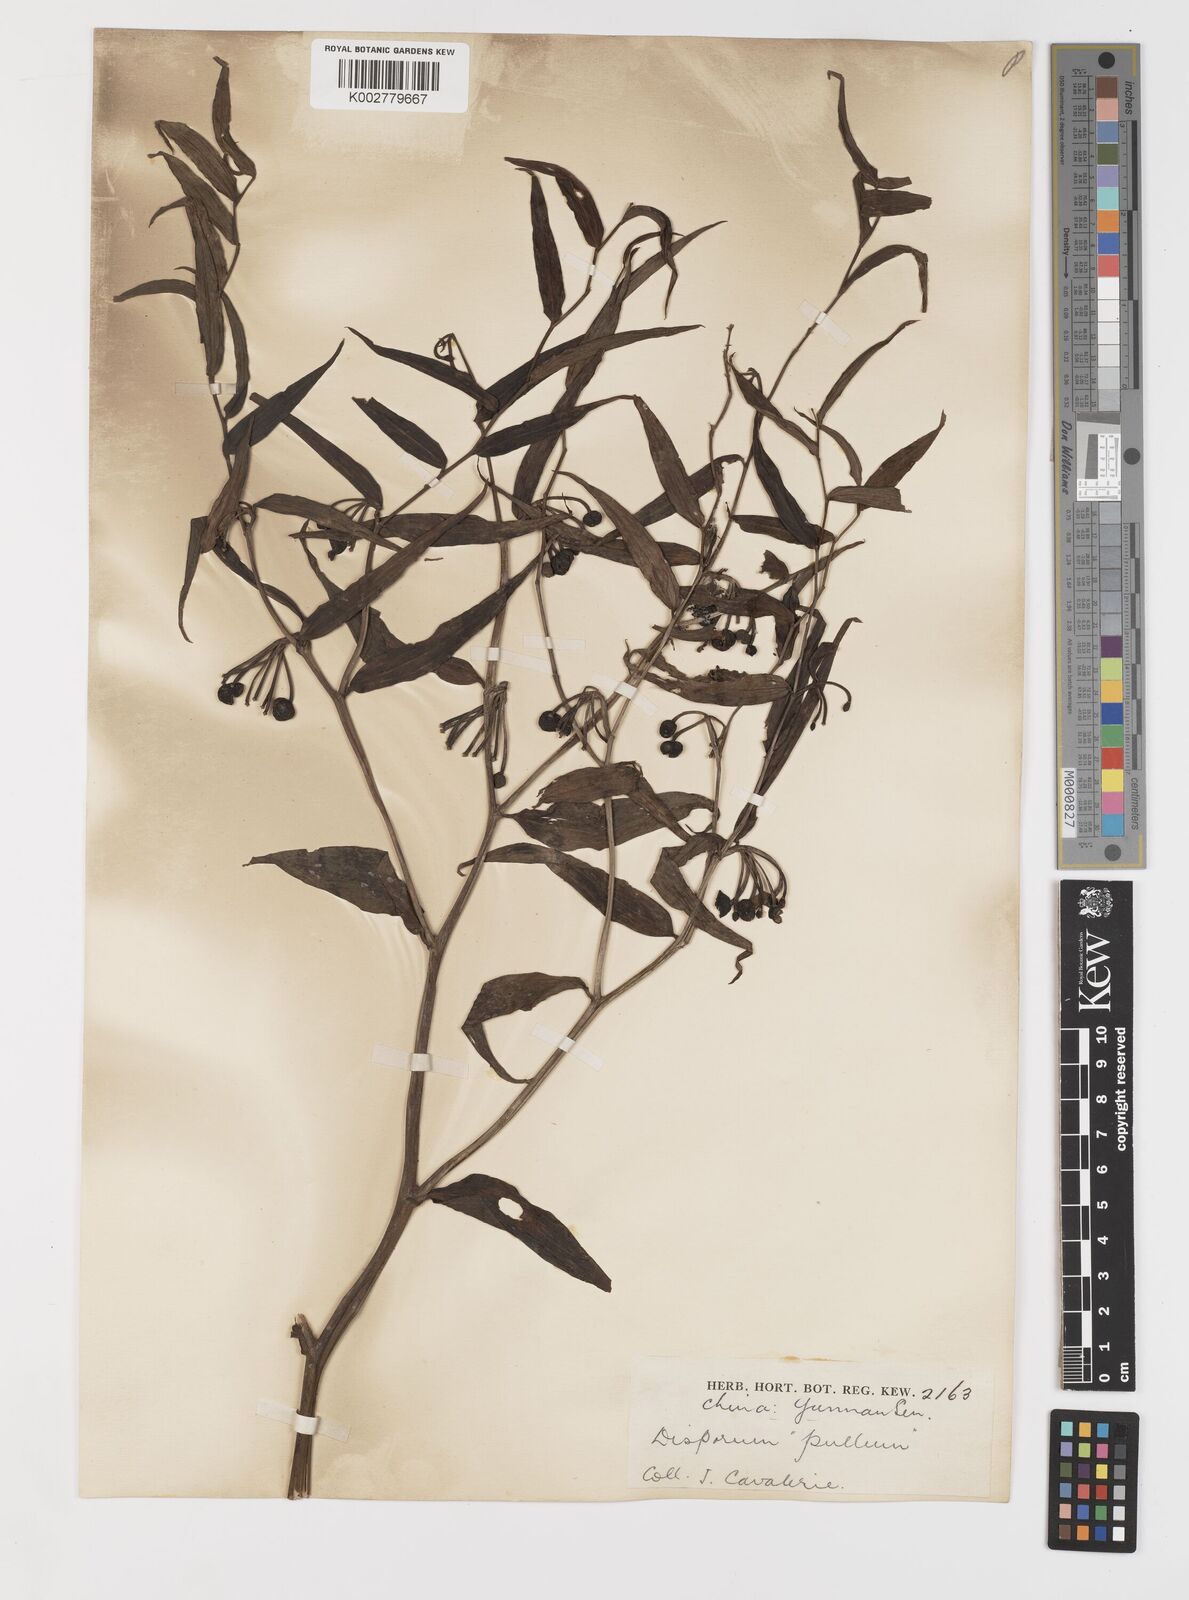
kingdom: Plantae
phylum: Tracheophyta
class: Liliopsida
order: Liliales
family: Colchicaceae
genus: Disporum
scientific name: Disporum cantoniense
